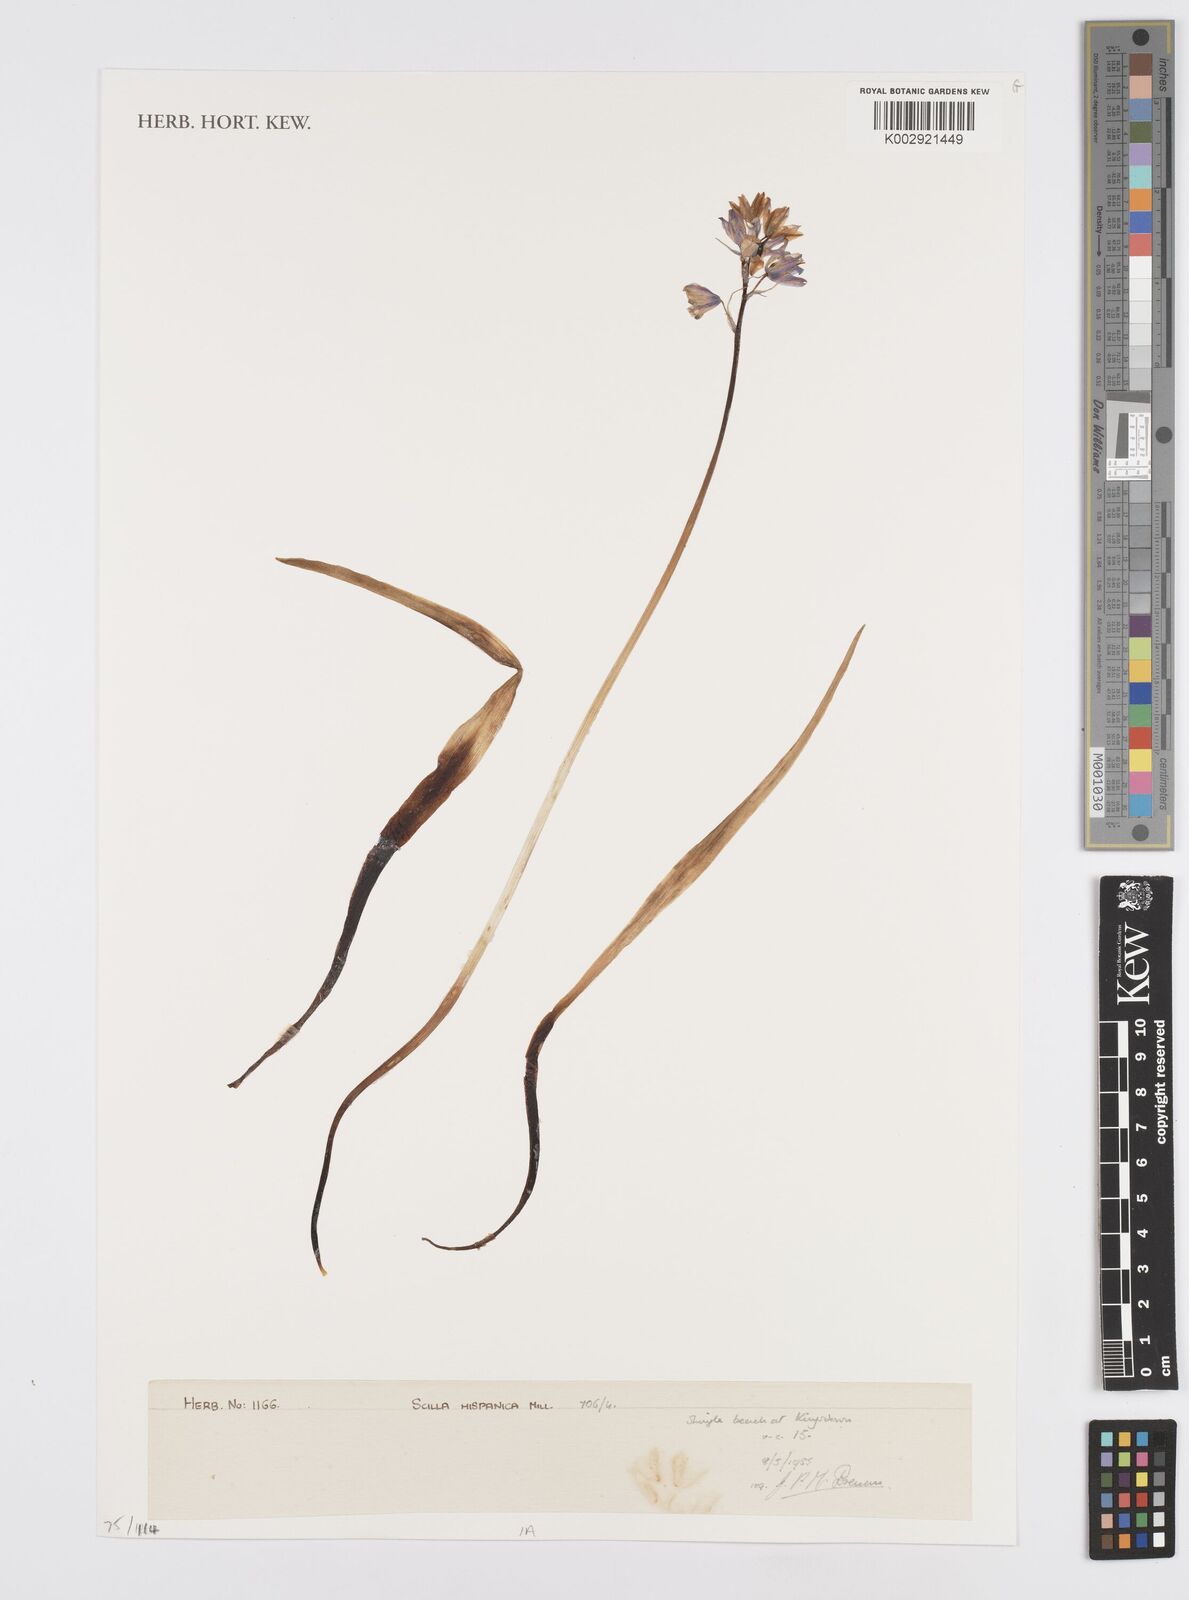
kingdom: Plantae
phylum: Tracheophyta
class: Liliopsida
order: Asparagales
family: Asparagaceae
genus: Hyacinthoides
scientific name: Hyacinthoides hispanica
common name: Spanish bluebell
